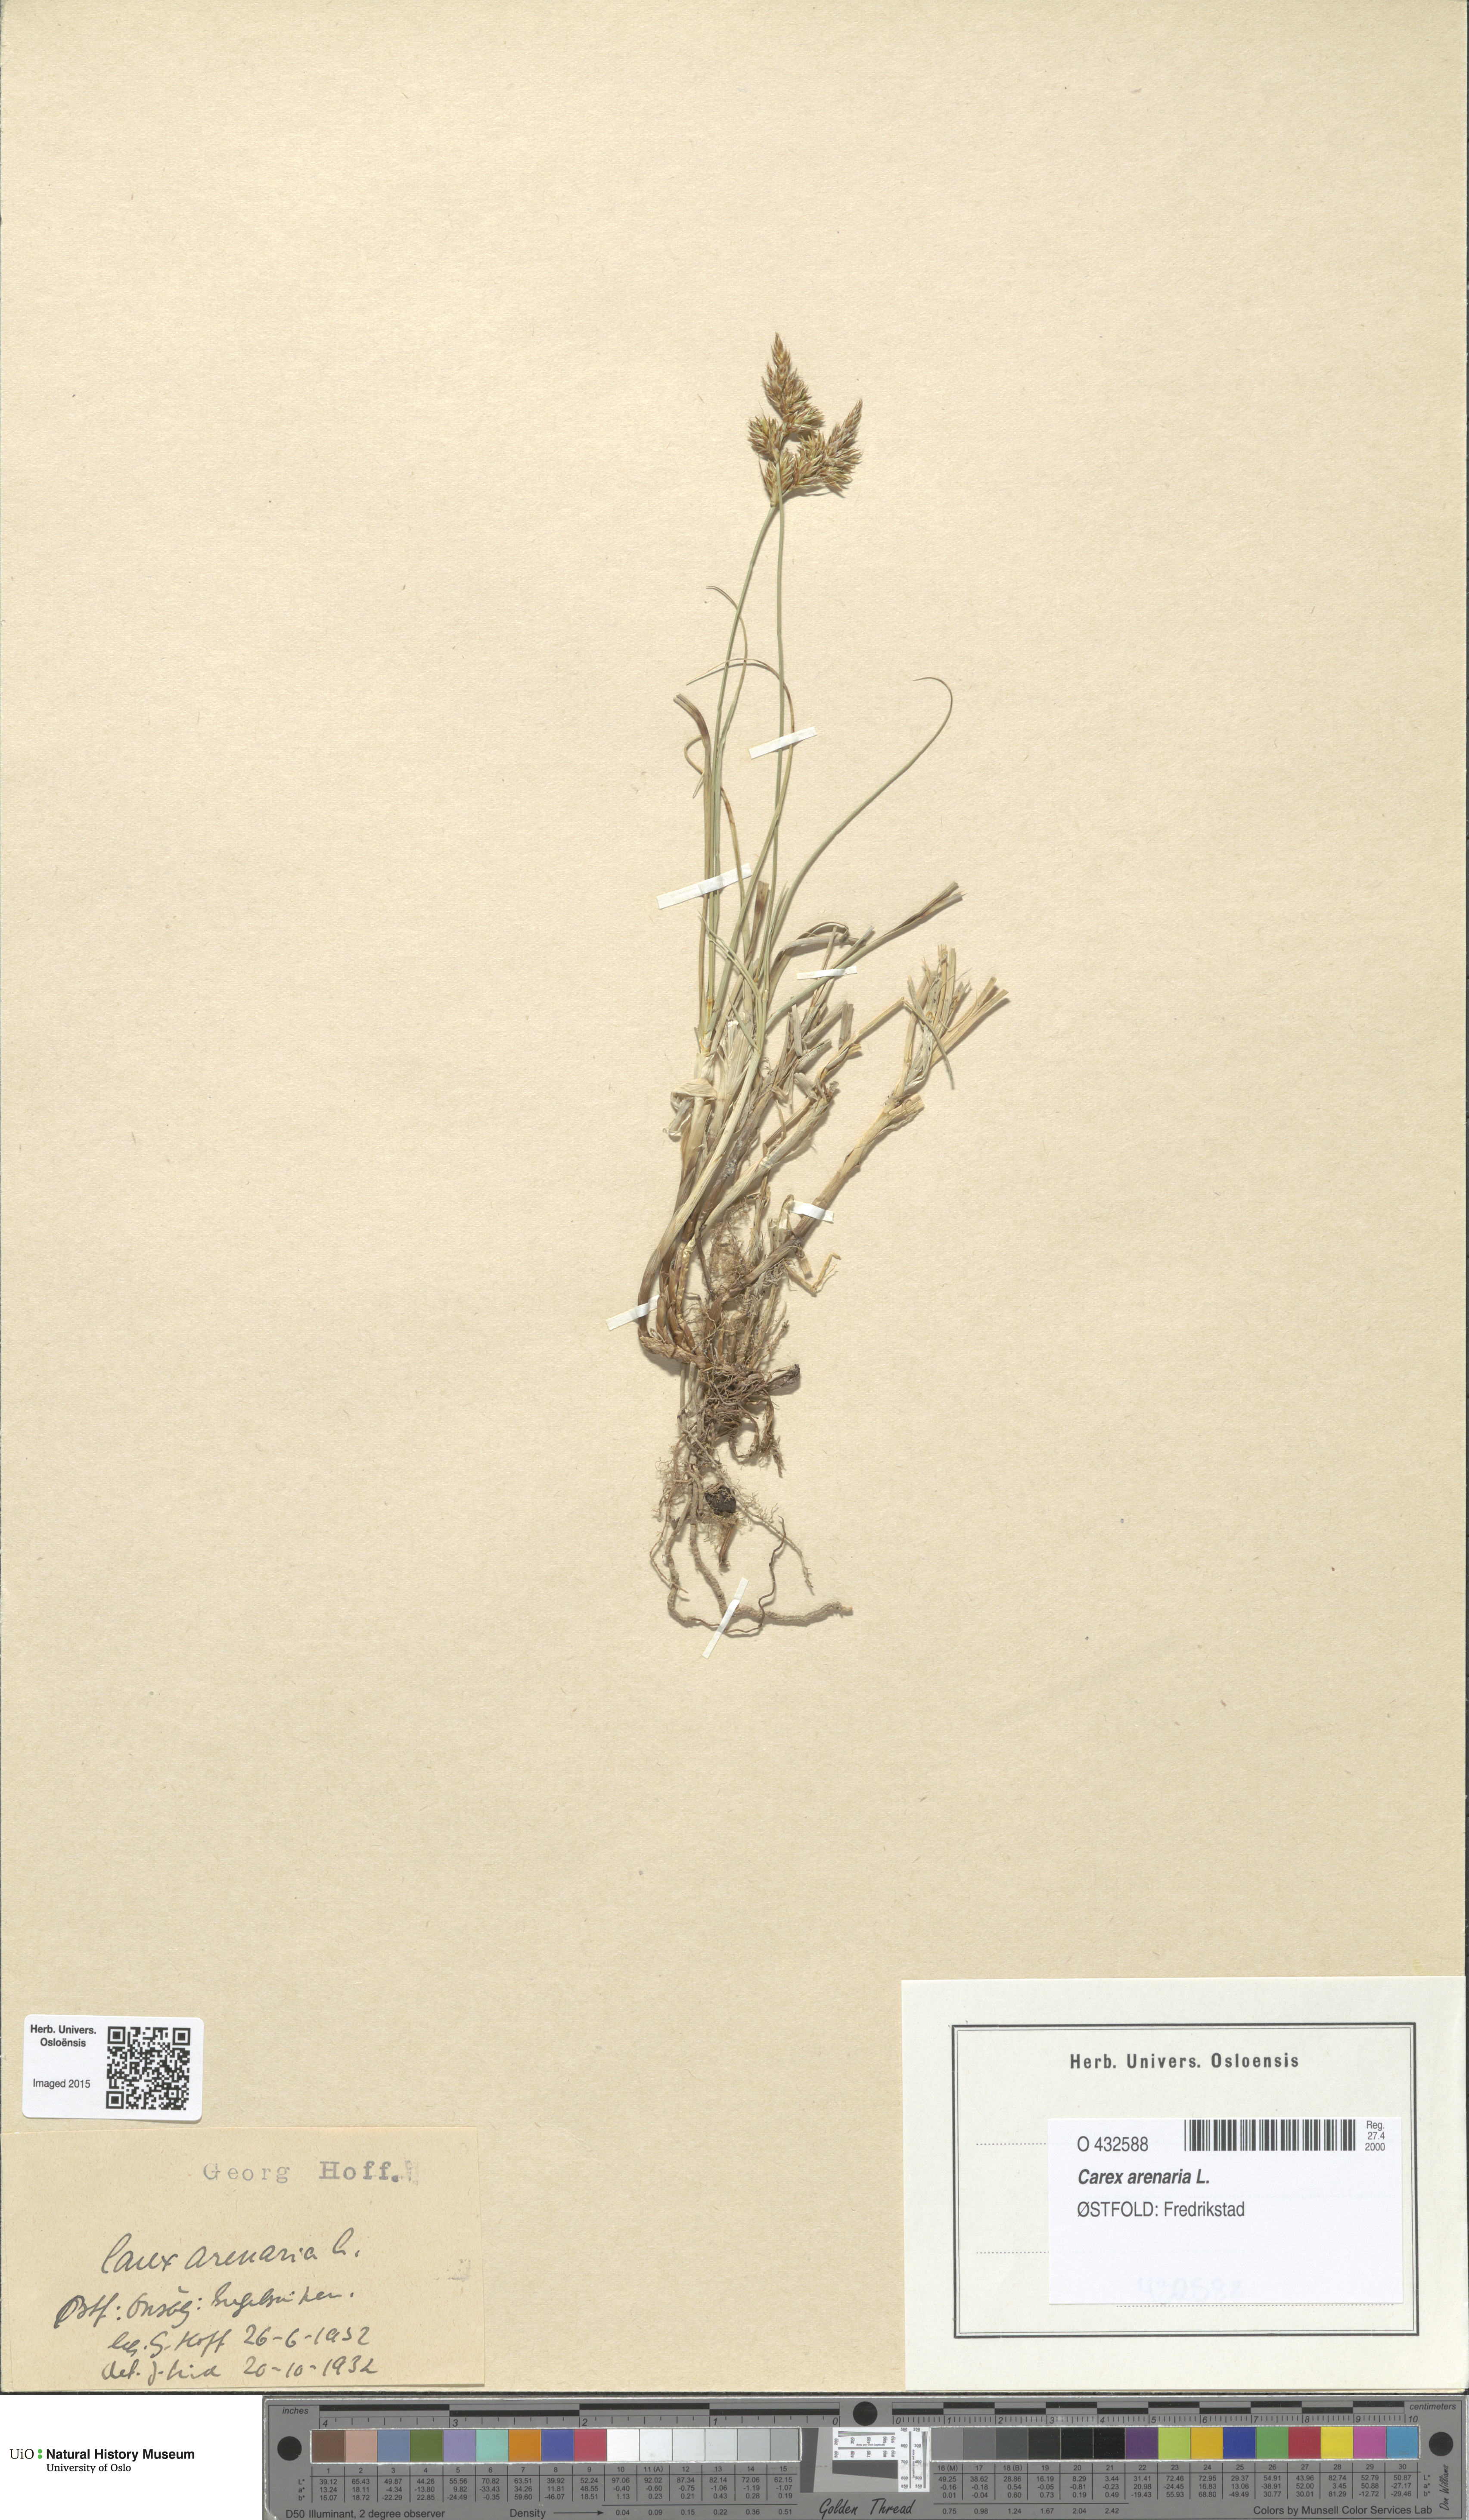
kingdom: Plantae
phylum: Tracheophyta
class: Liliopsida
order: Poales
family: Cyperaceae
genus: Carex
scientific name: Carex arenaria
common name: Sand sedge
